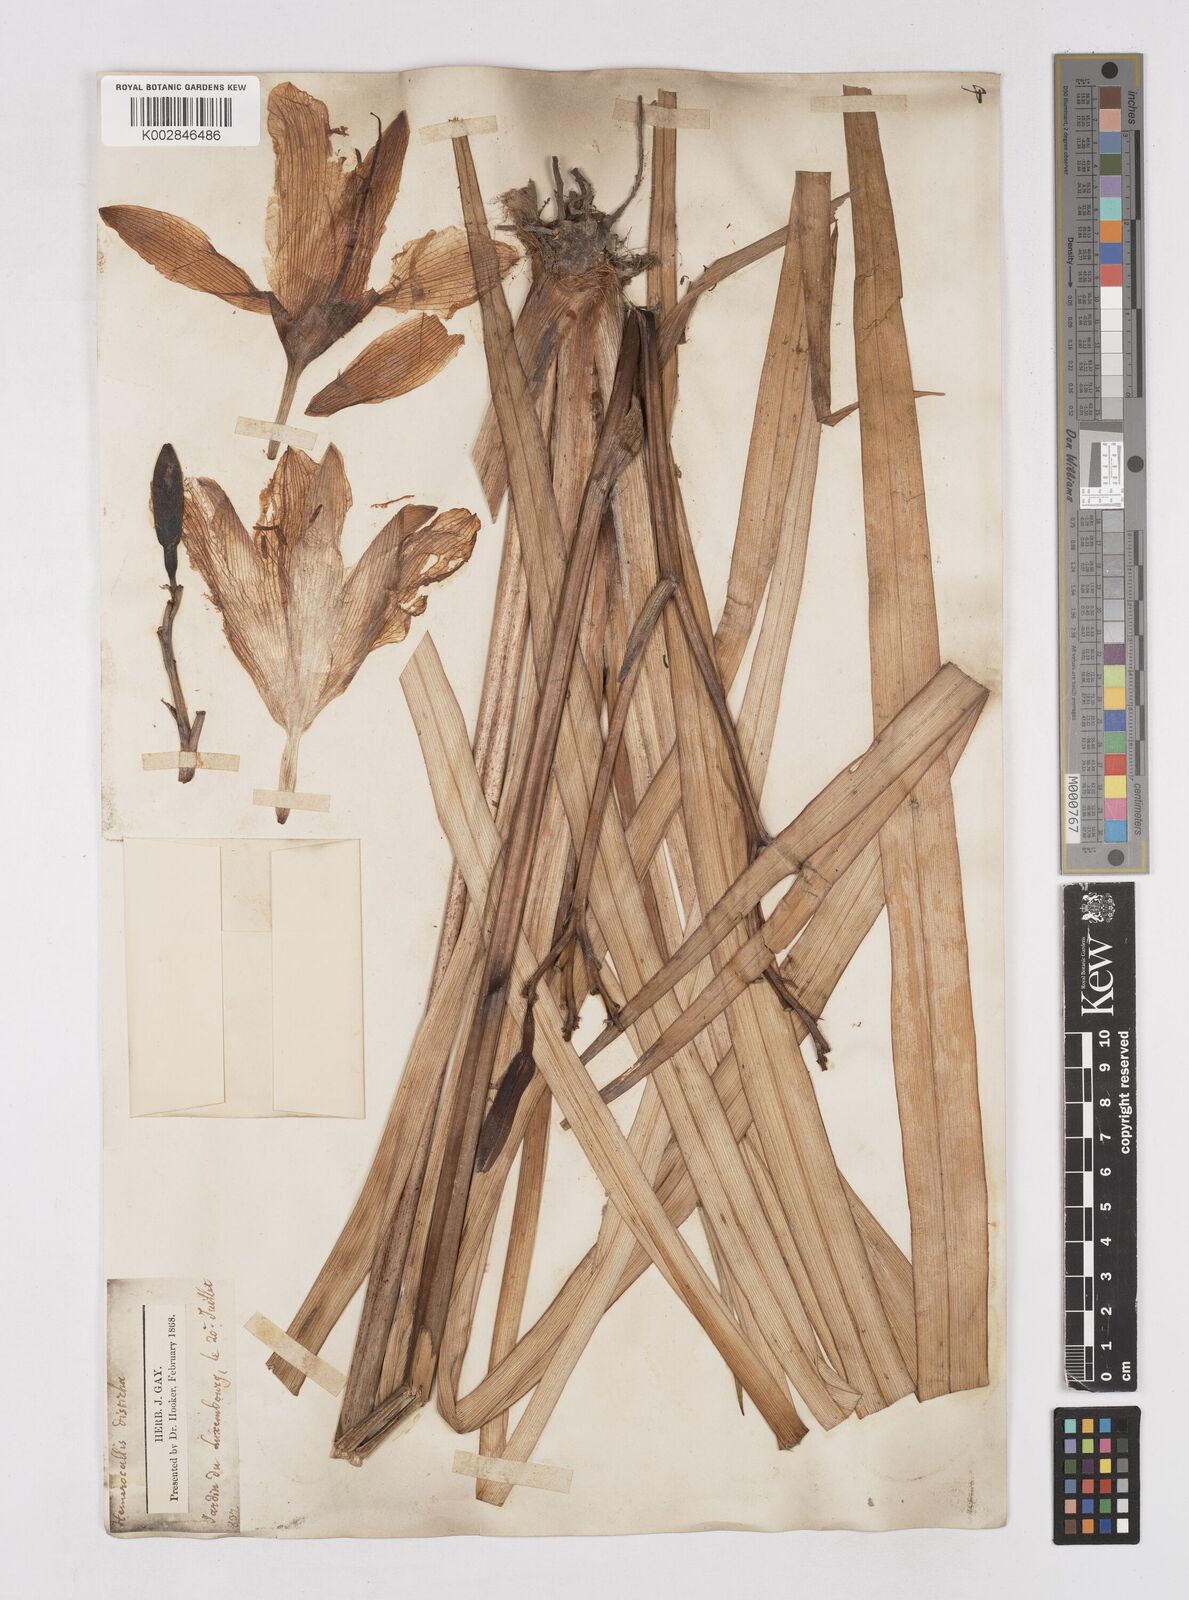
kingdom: Plantae
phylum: Tracheophyta
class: Liliopsida
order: Asparagales
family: Asphodelaceae
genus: Hemerocallis
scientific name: Hemerocallis lilioasphodelus
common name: Yellow day-lily
